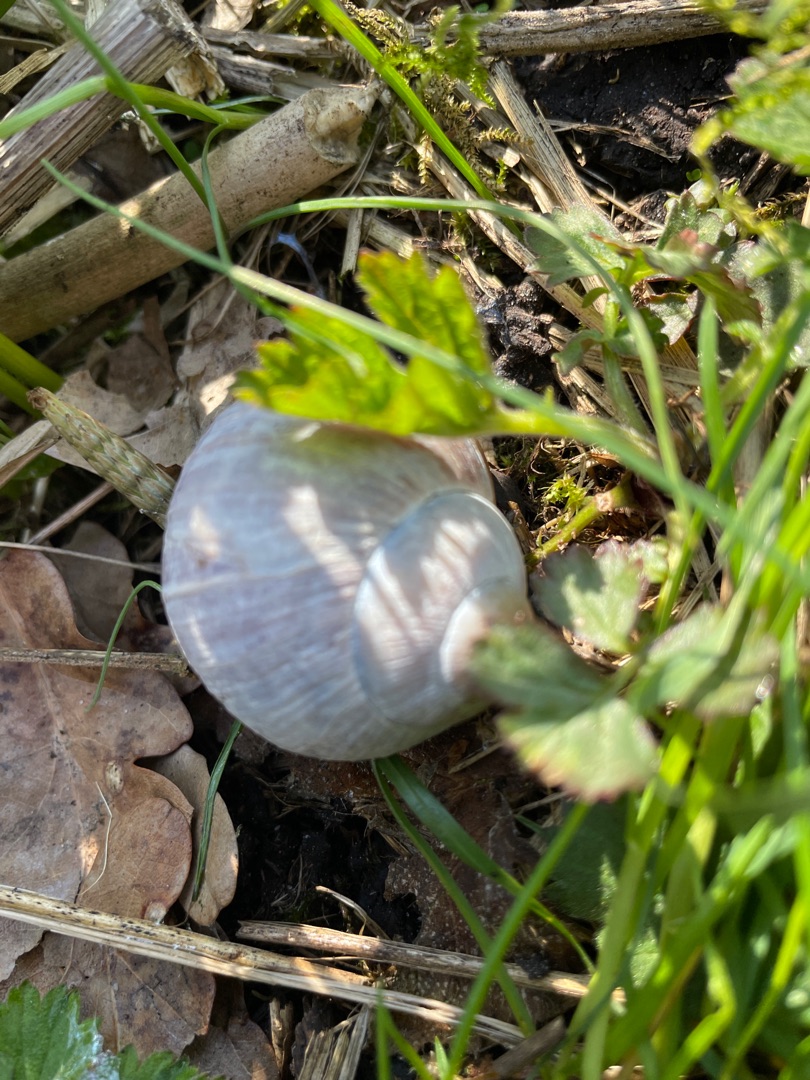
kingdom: Animalia
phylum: Mollusca
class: Gastropoda
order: Stylommatophora
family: Helicidae
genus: Helix
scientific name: Helix pomatia
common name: Vinbjergsnegl
